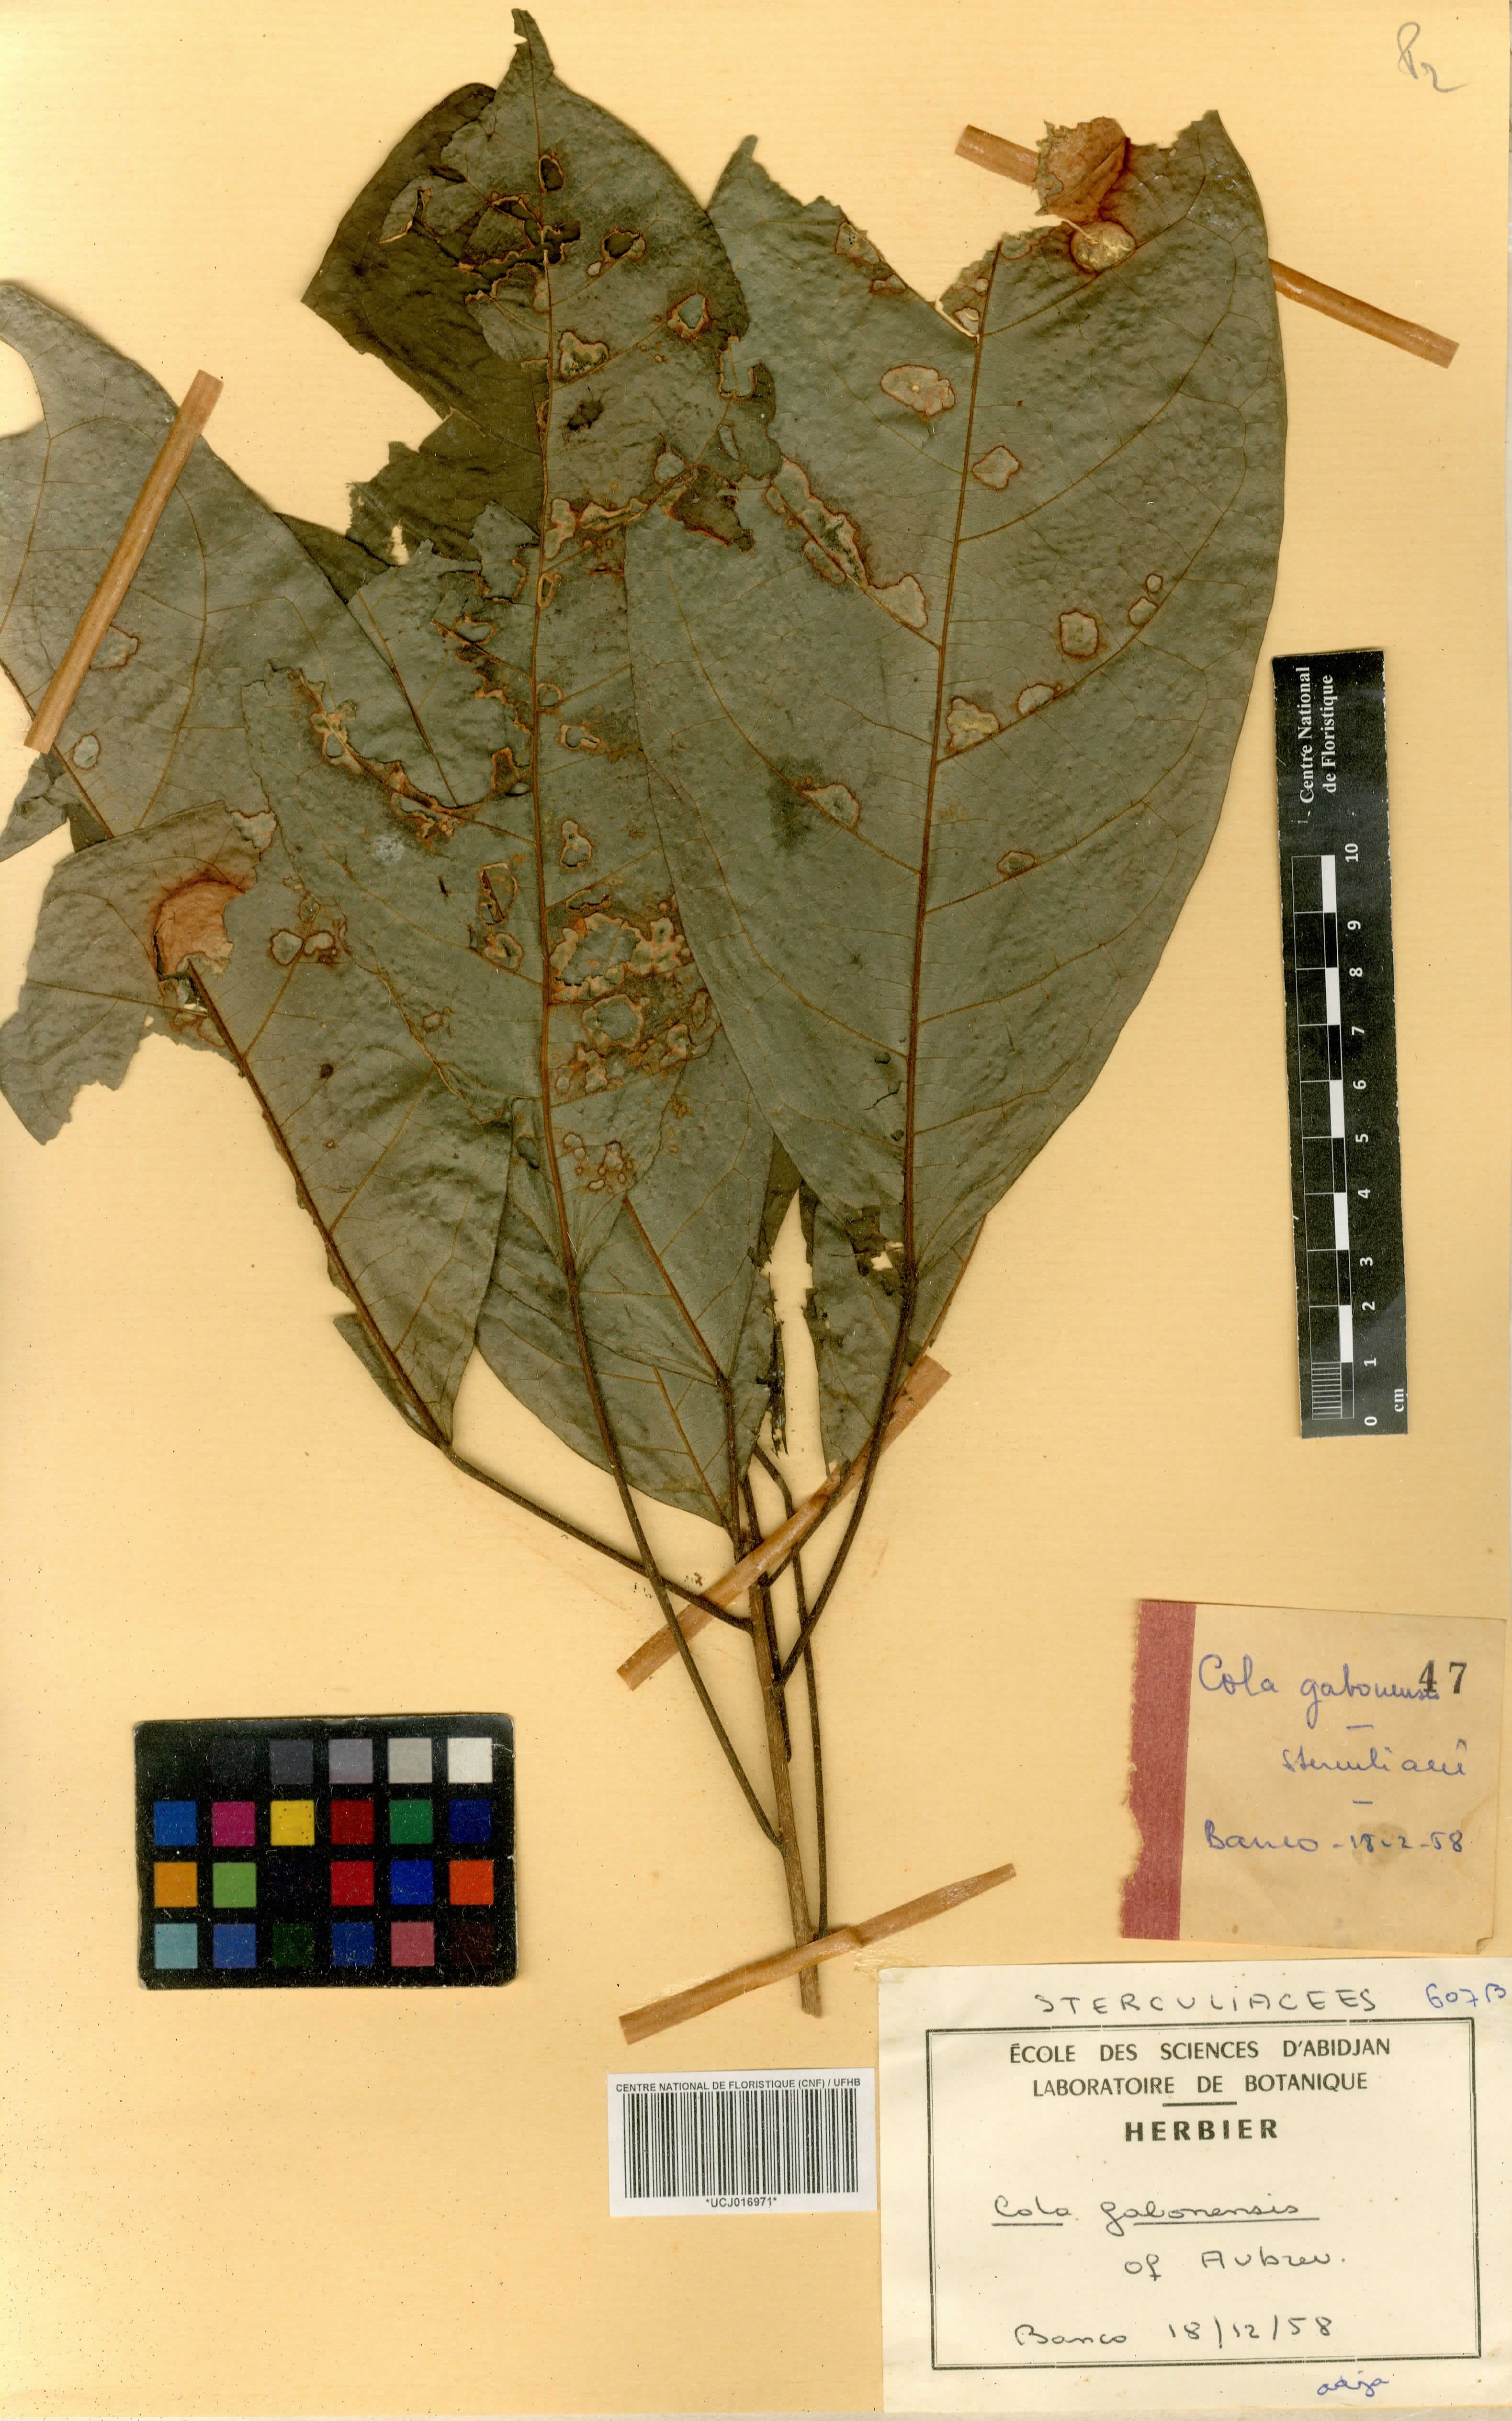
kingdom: Plantae
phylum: Tracheophyta
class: Magnoliopsida
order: Malvales
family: Malvaceae
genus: Cola
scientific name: Cola gabonensis
